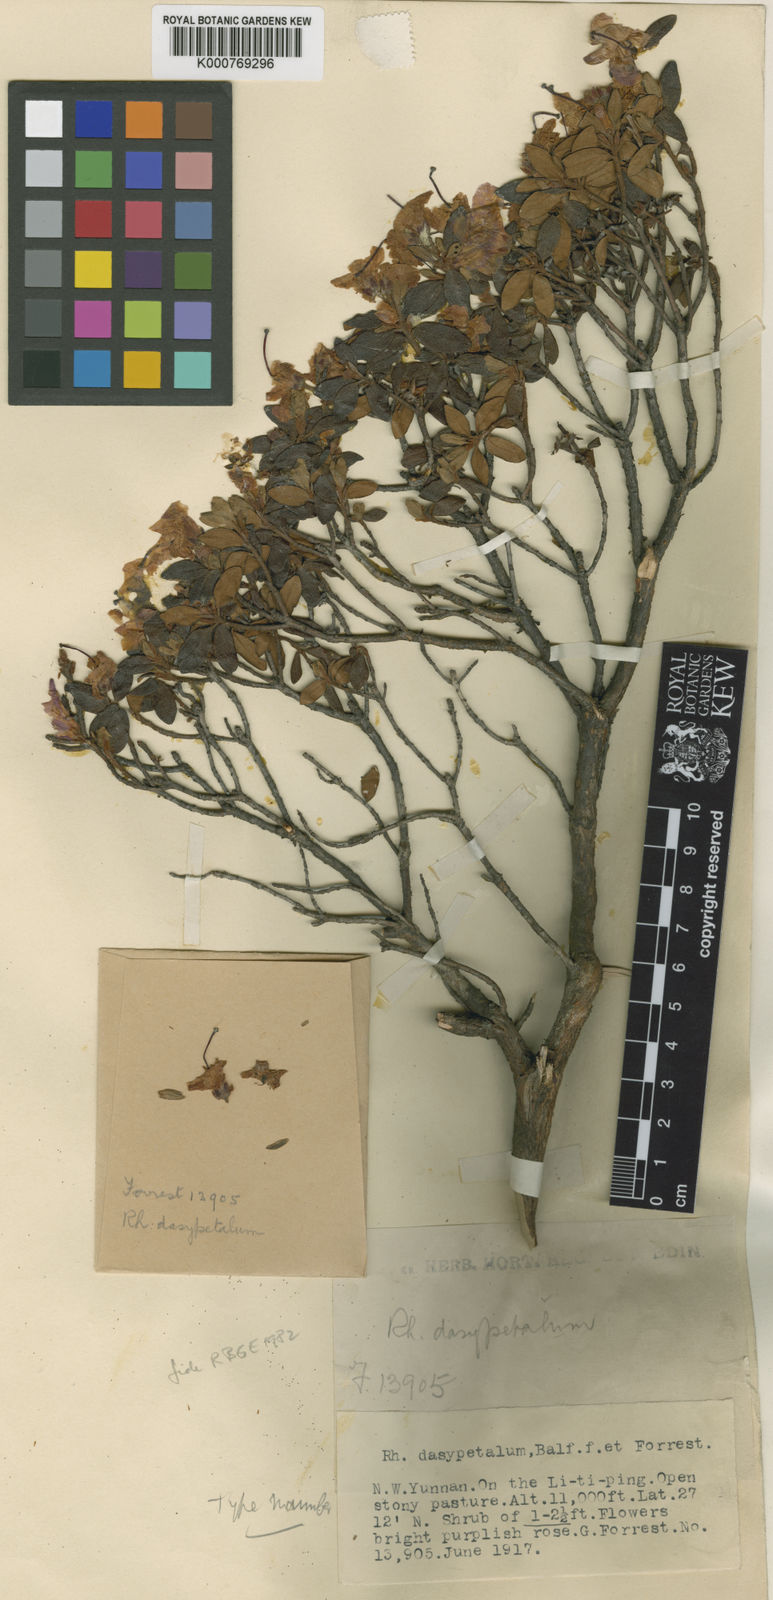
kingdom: Plantae
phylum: Tracheophyta
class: Magnoliopsida
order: Ericales
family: Ericaceae
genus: Rhododendron
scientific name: Rhododendron dasypetalum
